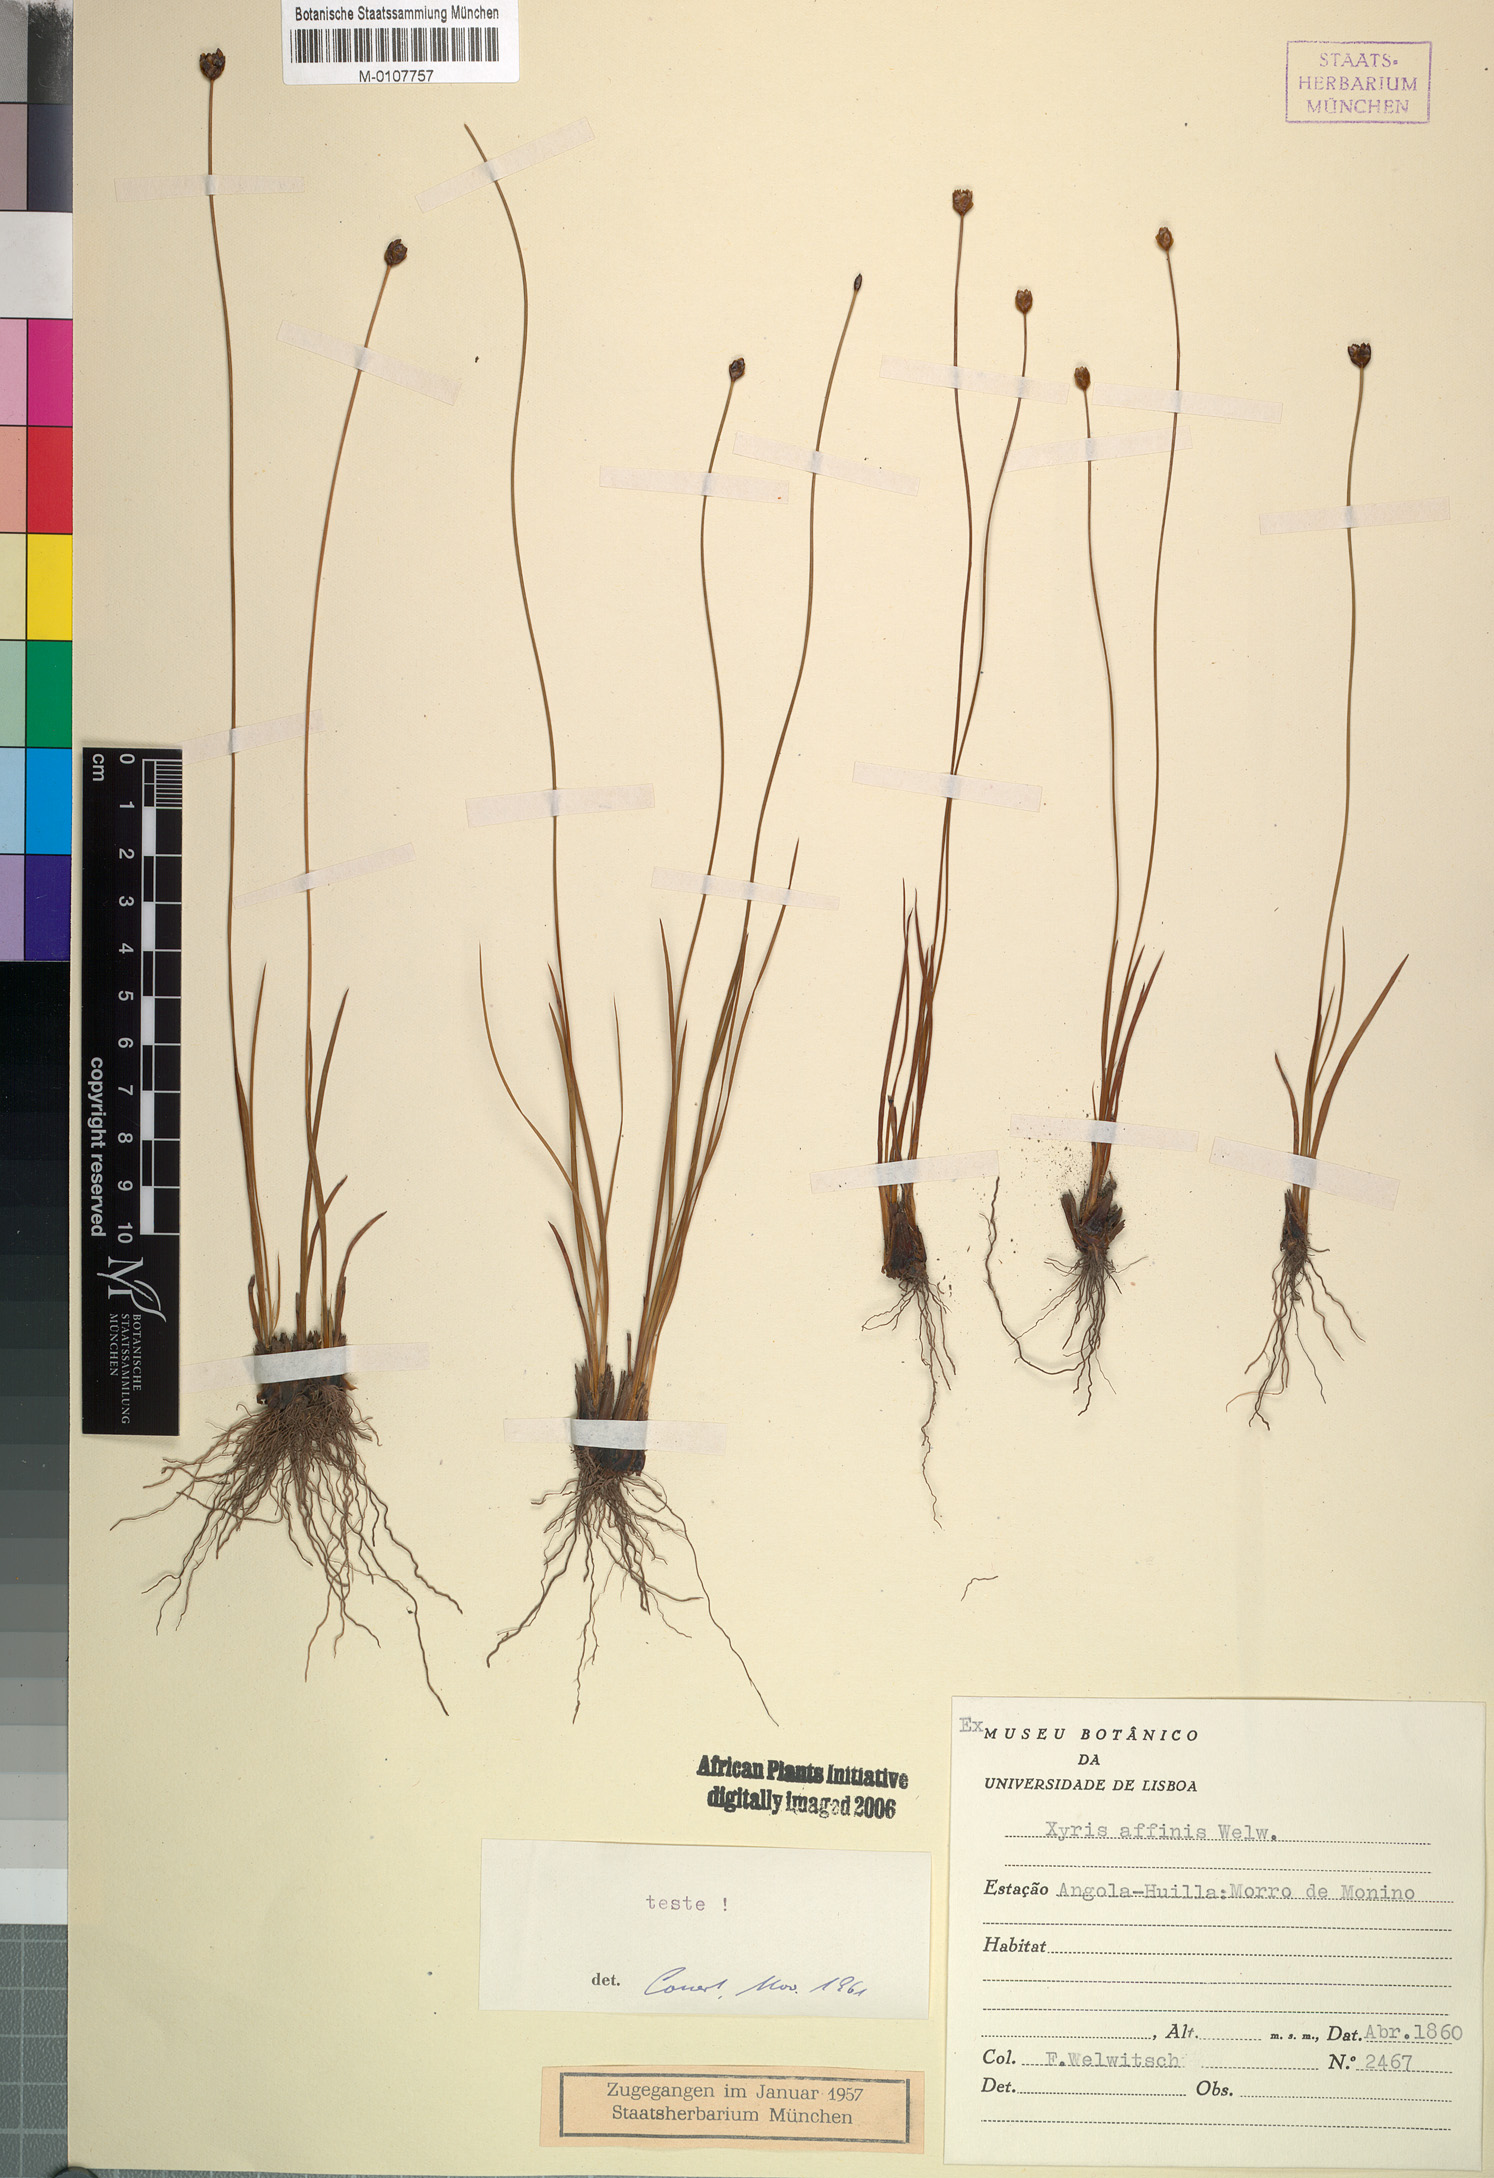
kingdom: Plantae
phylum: Tracheophyta
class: Liliopsida
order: Poales
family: Xyridaceae
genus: Xyris
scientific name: Xyris affinis
